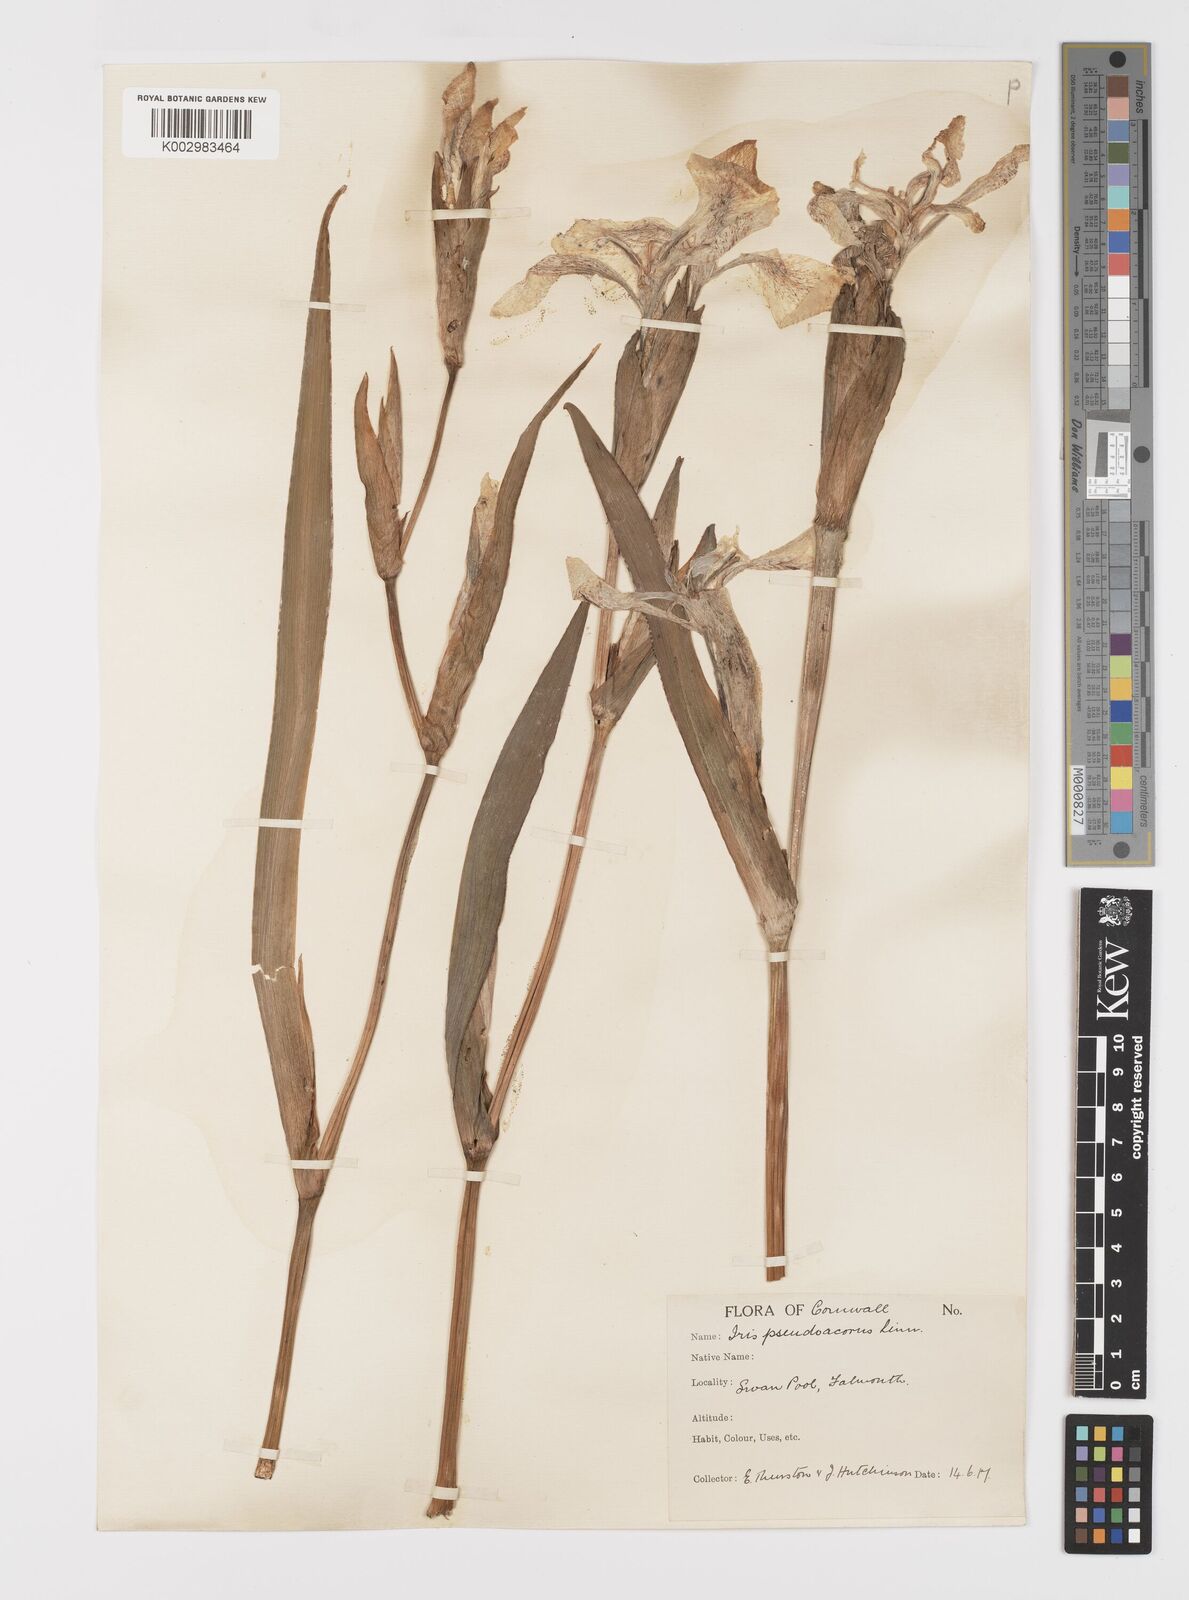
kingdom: Plantae
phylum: Tracheophyta
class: Liliopsida
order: Asparagales
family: Iridaceae
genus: Iris
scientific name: Iris pseudacorus
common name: Yellow flag
